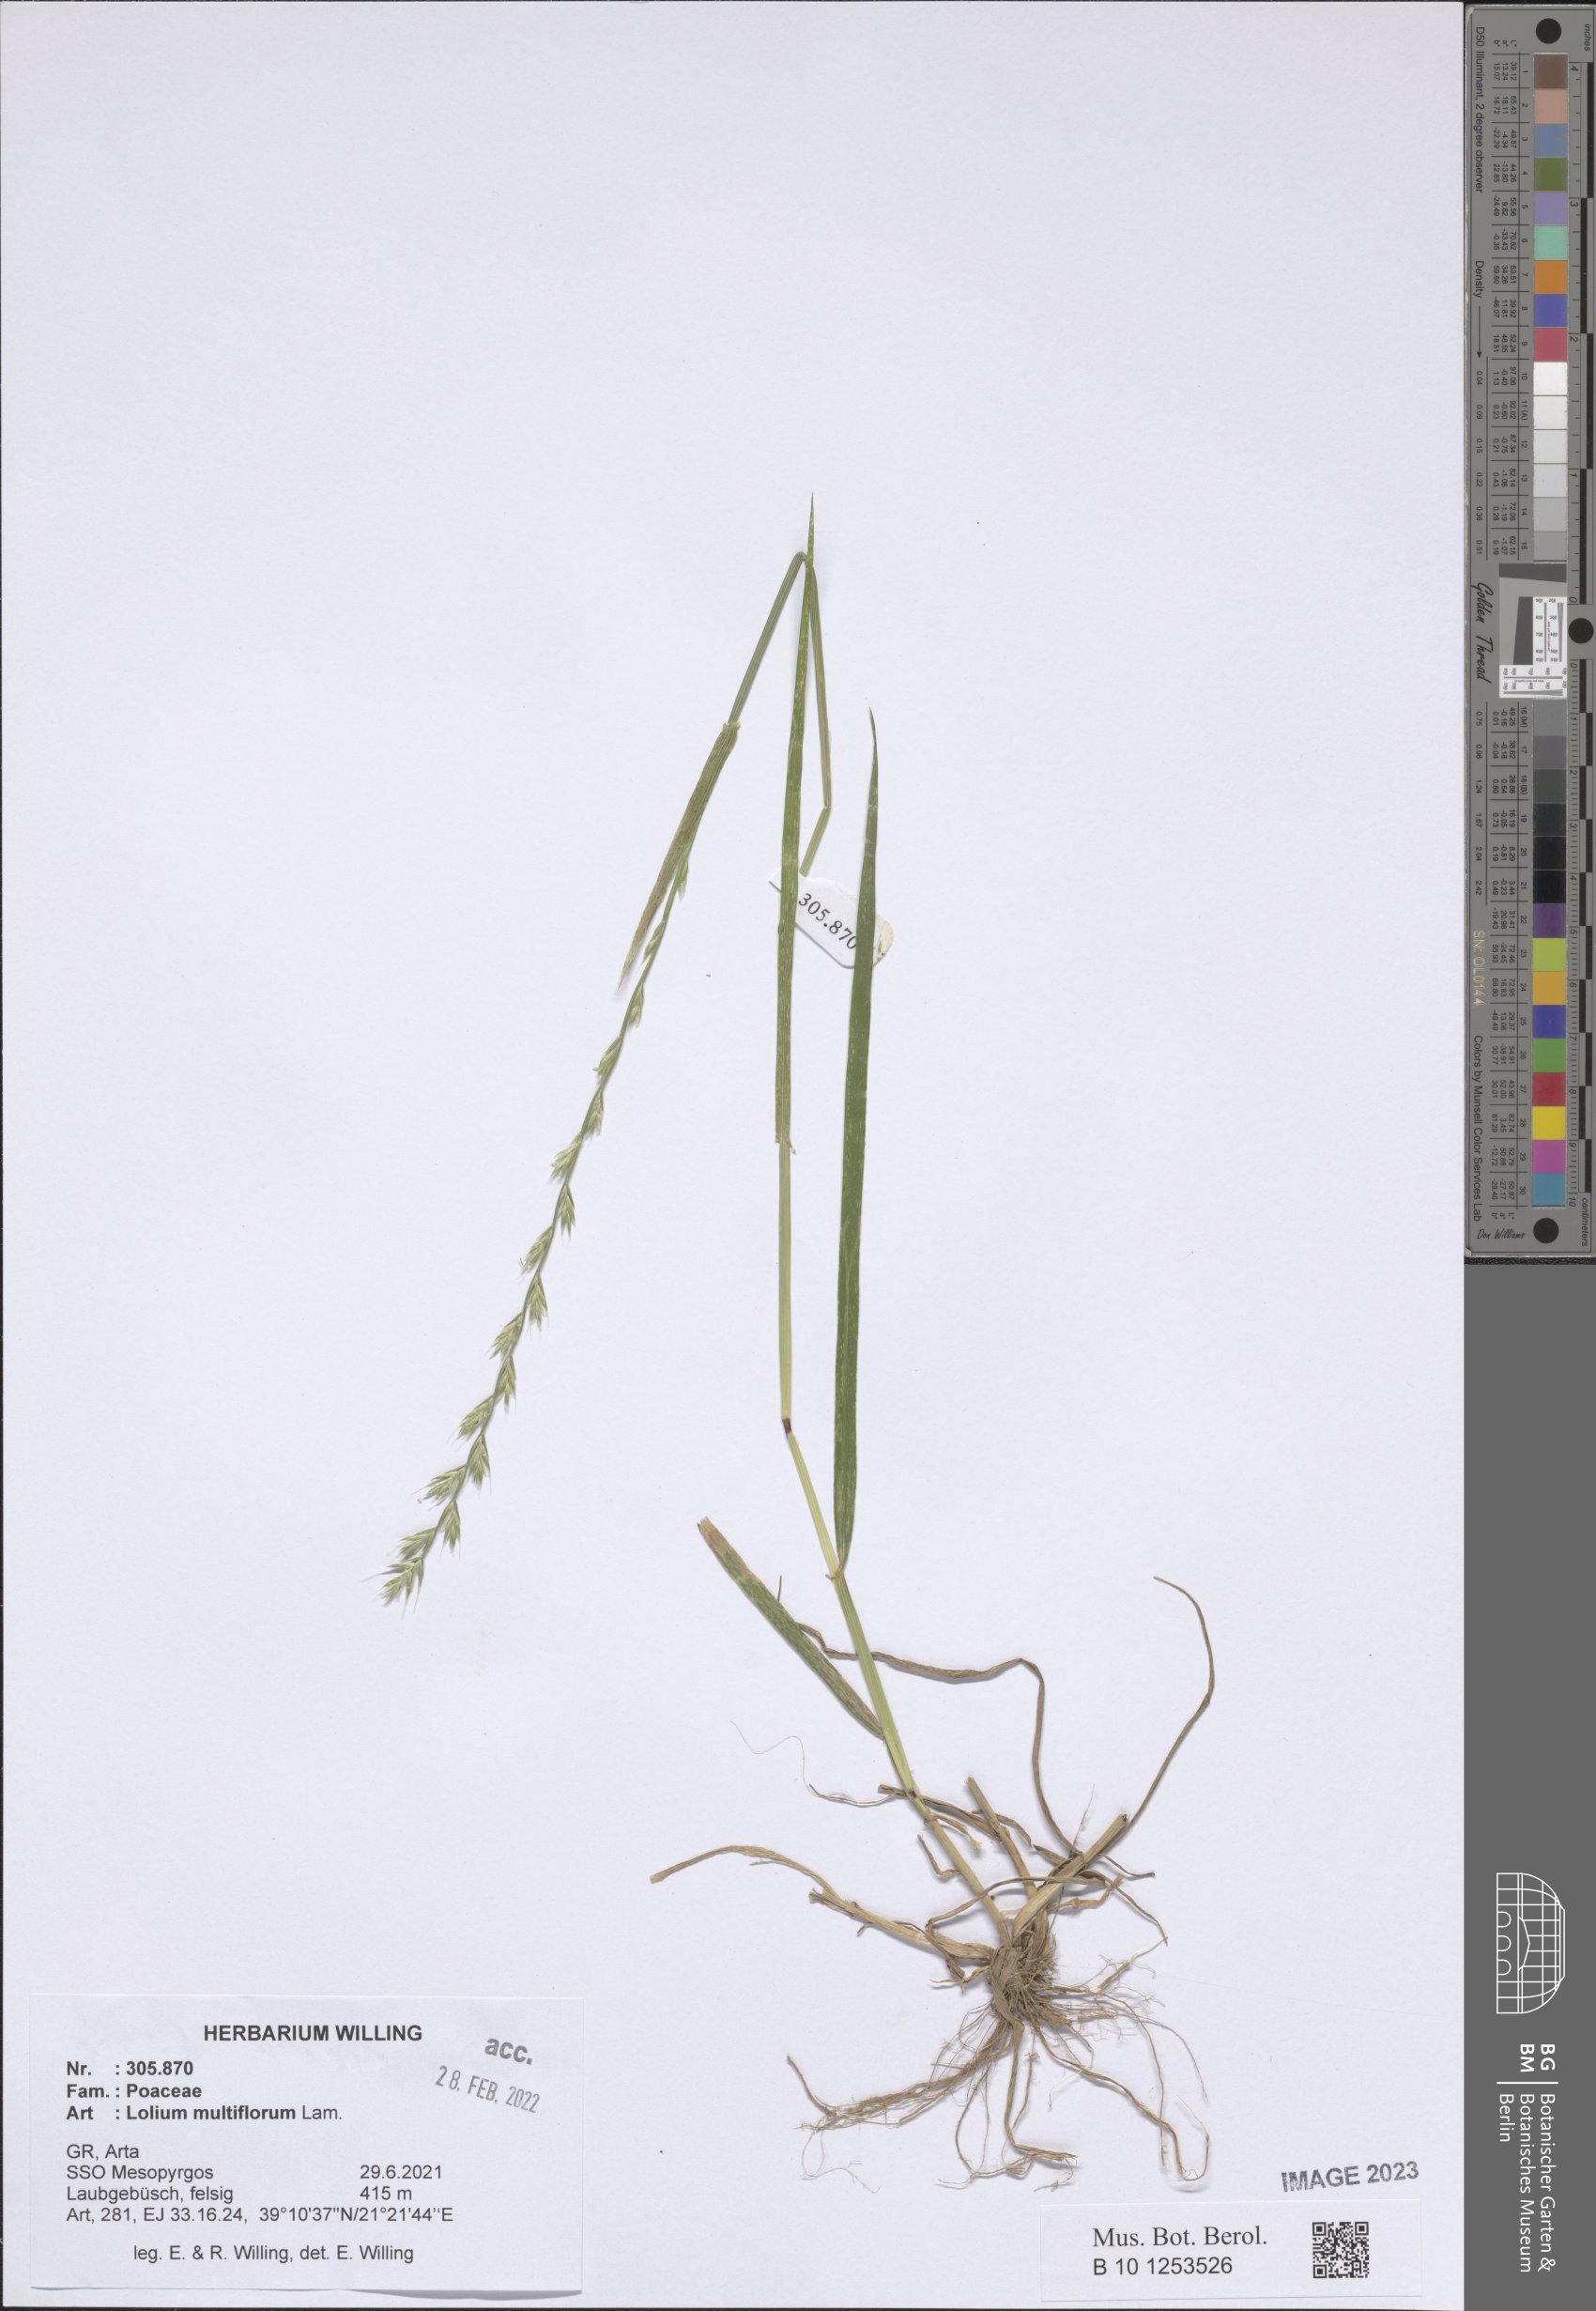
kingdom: Plantae
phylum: Tracheophyta
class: Liliopsida
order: Poales
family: Poaceae
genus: Lolium
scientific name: Lolium multiflorum
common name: Annual ryegrass
